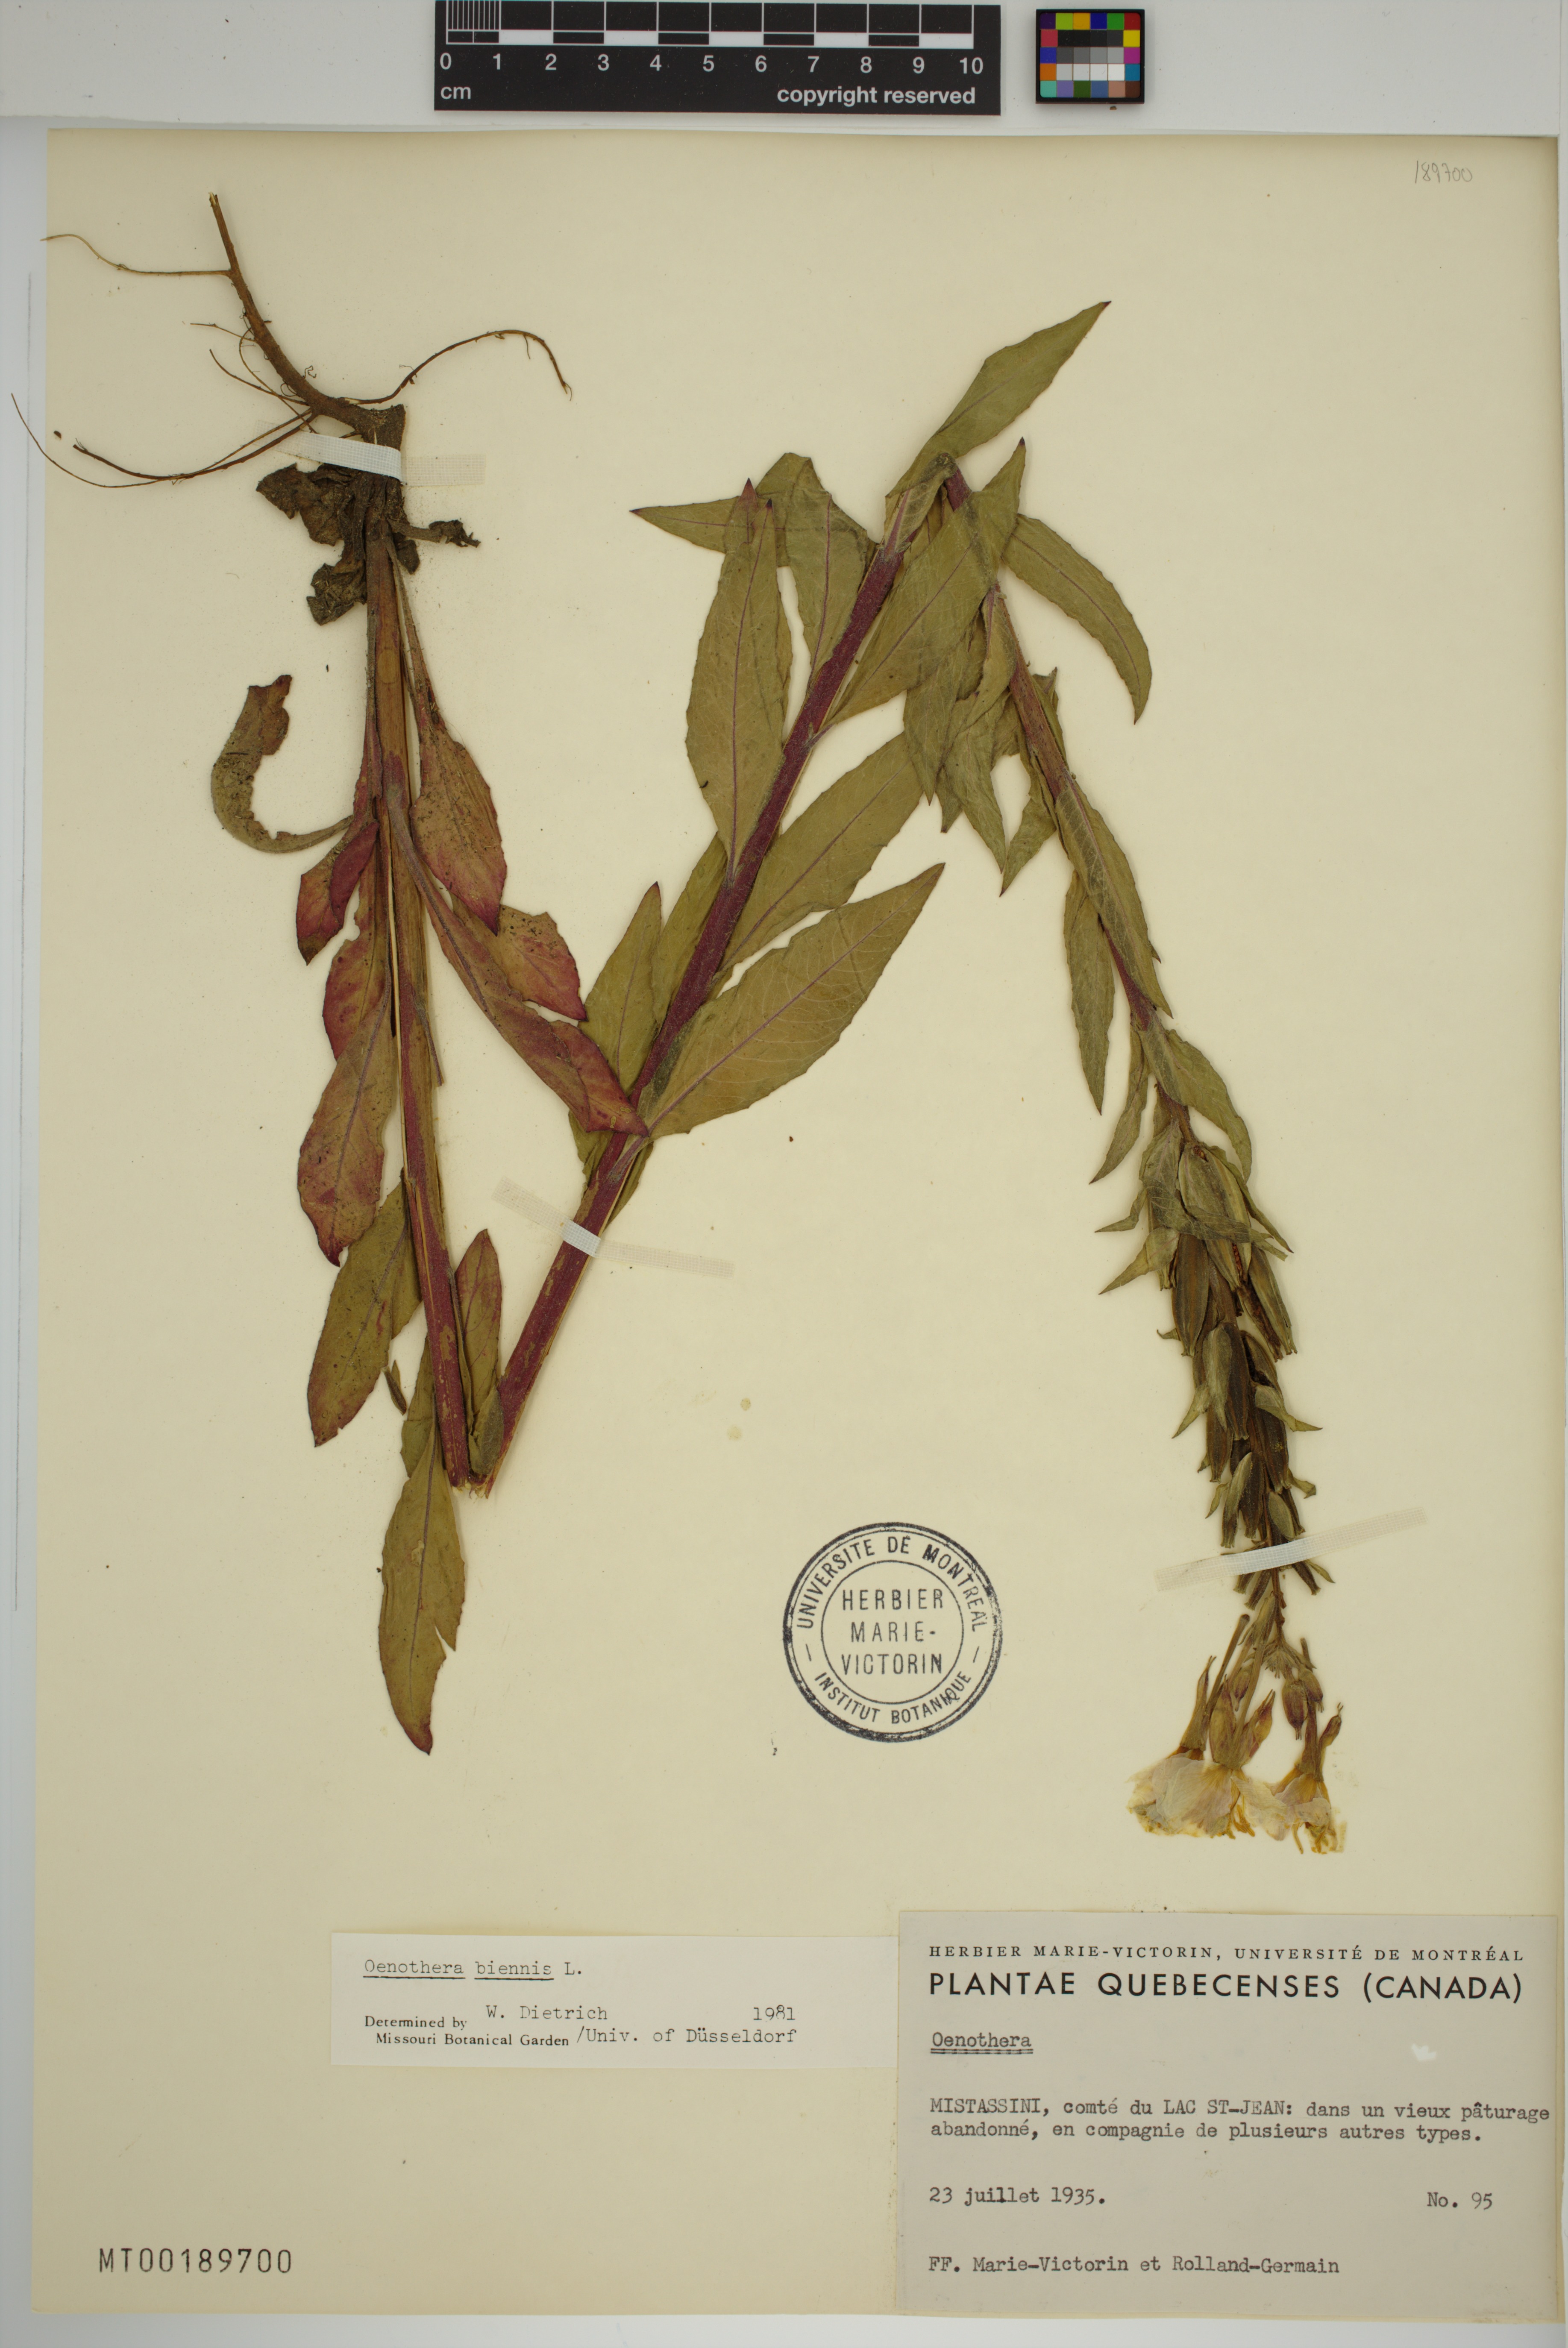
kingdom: Plantae
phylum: Tracheophyta
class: Magnoliopsida
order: Myrtales
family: Onagraceae
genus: Oenothera
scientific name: Oenothera biennis
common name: Common evening-primrose
